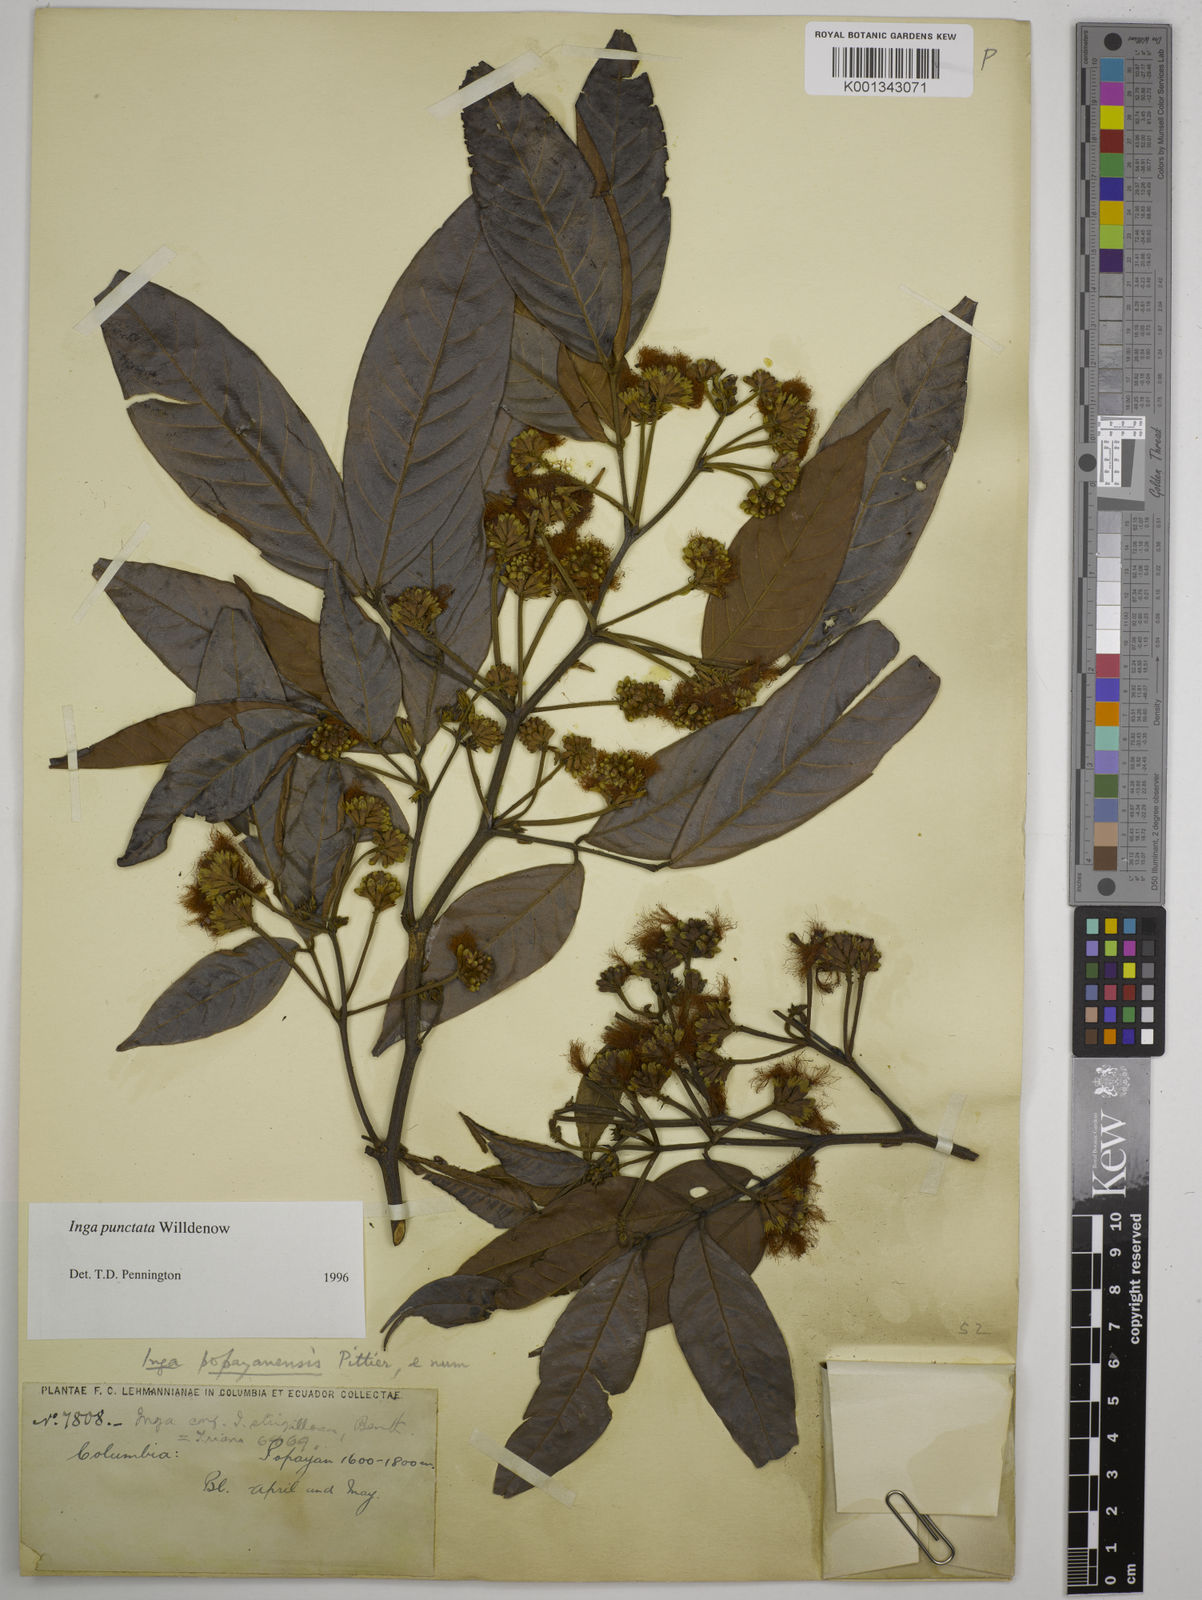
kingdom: Plantae
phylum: Tracheophyta
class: Magnoliopsida
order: Fabales
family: Fabaceae
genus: Inga
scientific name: Inga punctata
